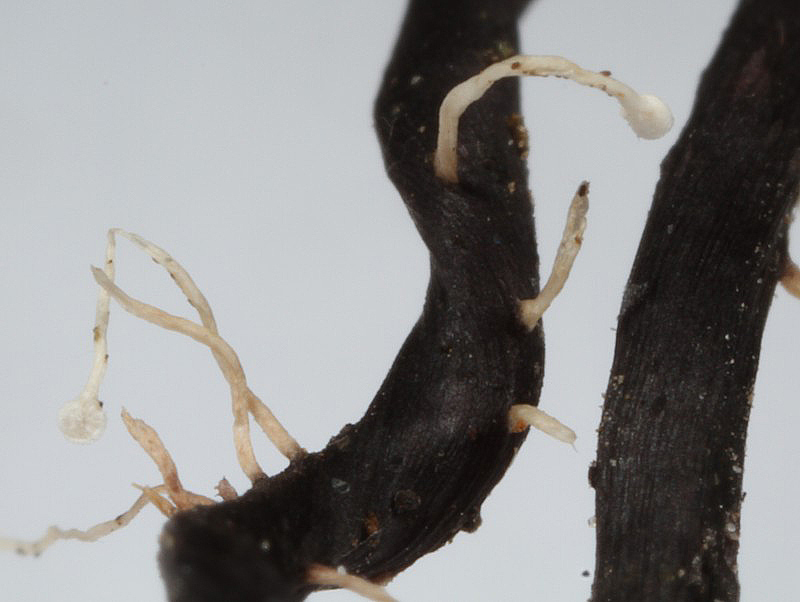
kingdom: Fungi
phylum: Ascomycota
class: Sordariomycetes
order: Hypocreales
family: Ophiocordycipitaceae
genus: Ophiocordyceps
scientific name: Ophiocordyceps entomorrhiza
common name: grå snyltekølle
